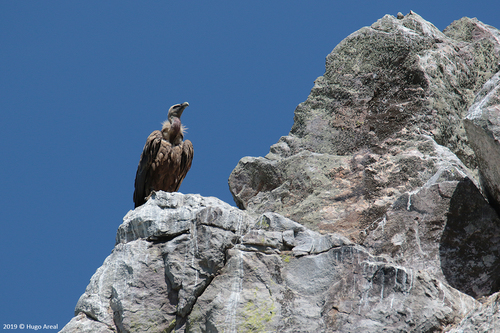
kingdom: Animalia
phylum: Chordata
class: Aves
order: Accipitriformes
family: Accipitridae
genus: Gyps
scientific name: Gyps fulvus
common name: Griffon vulture
